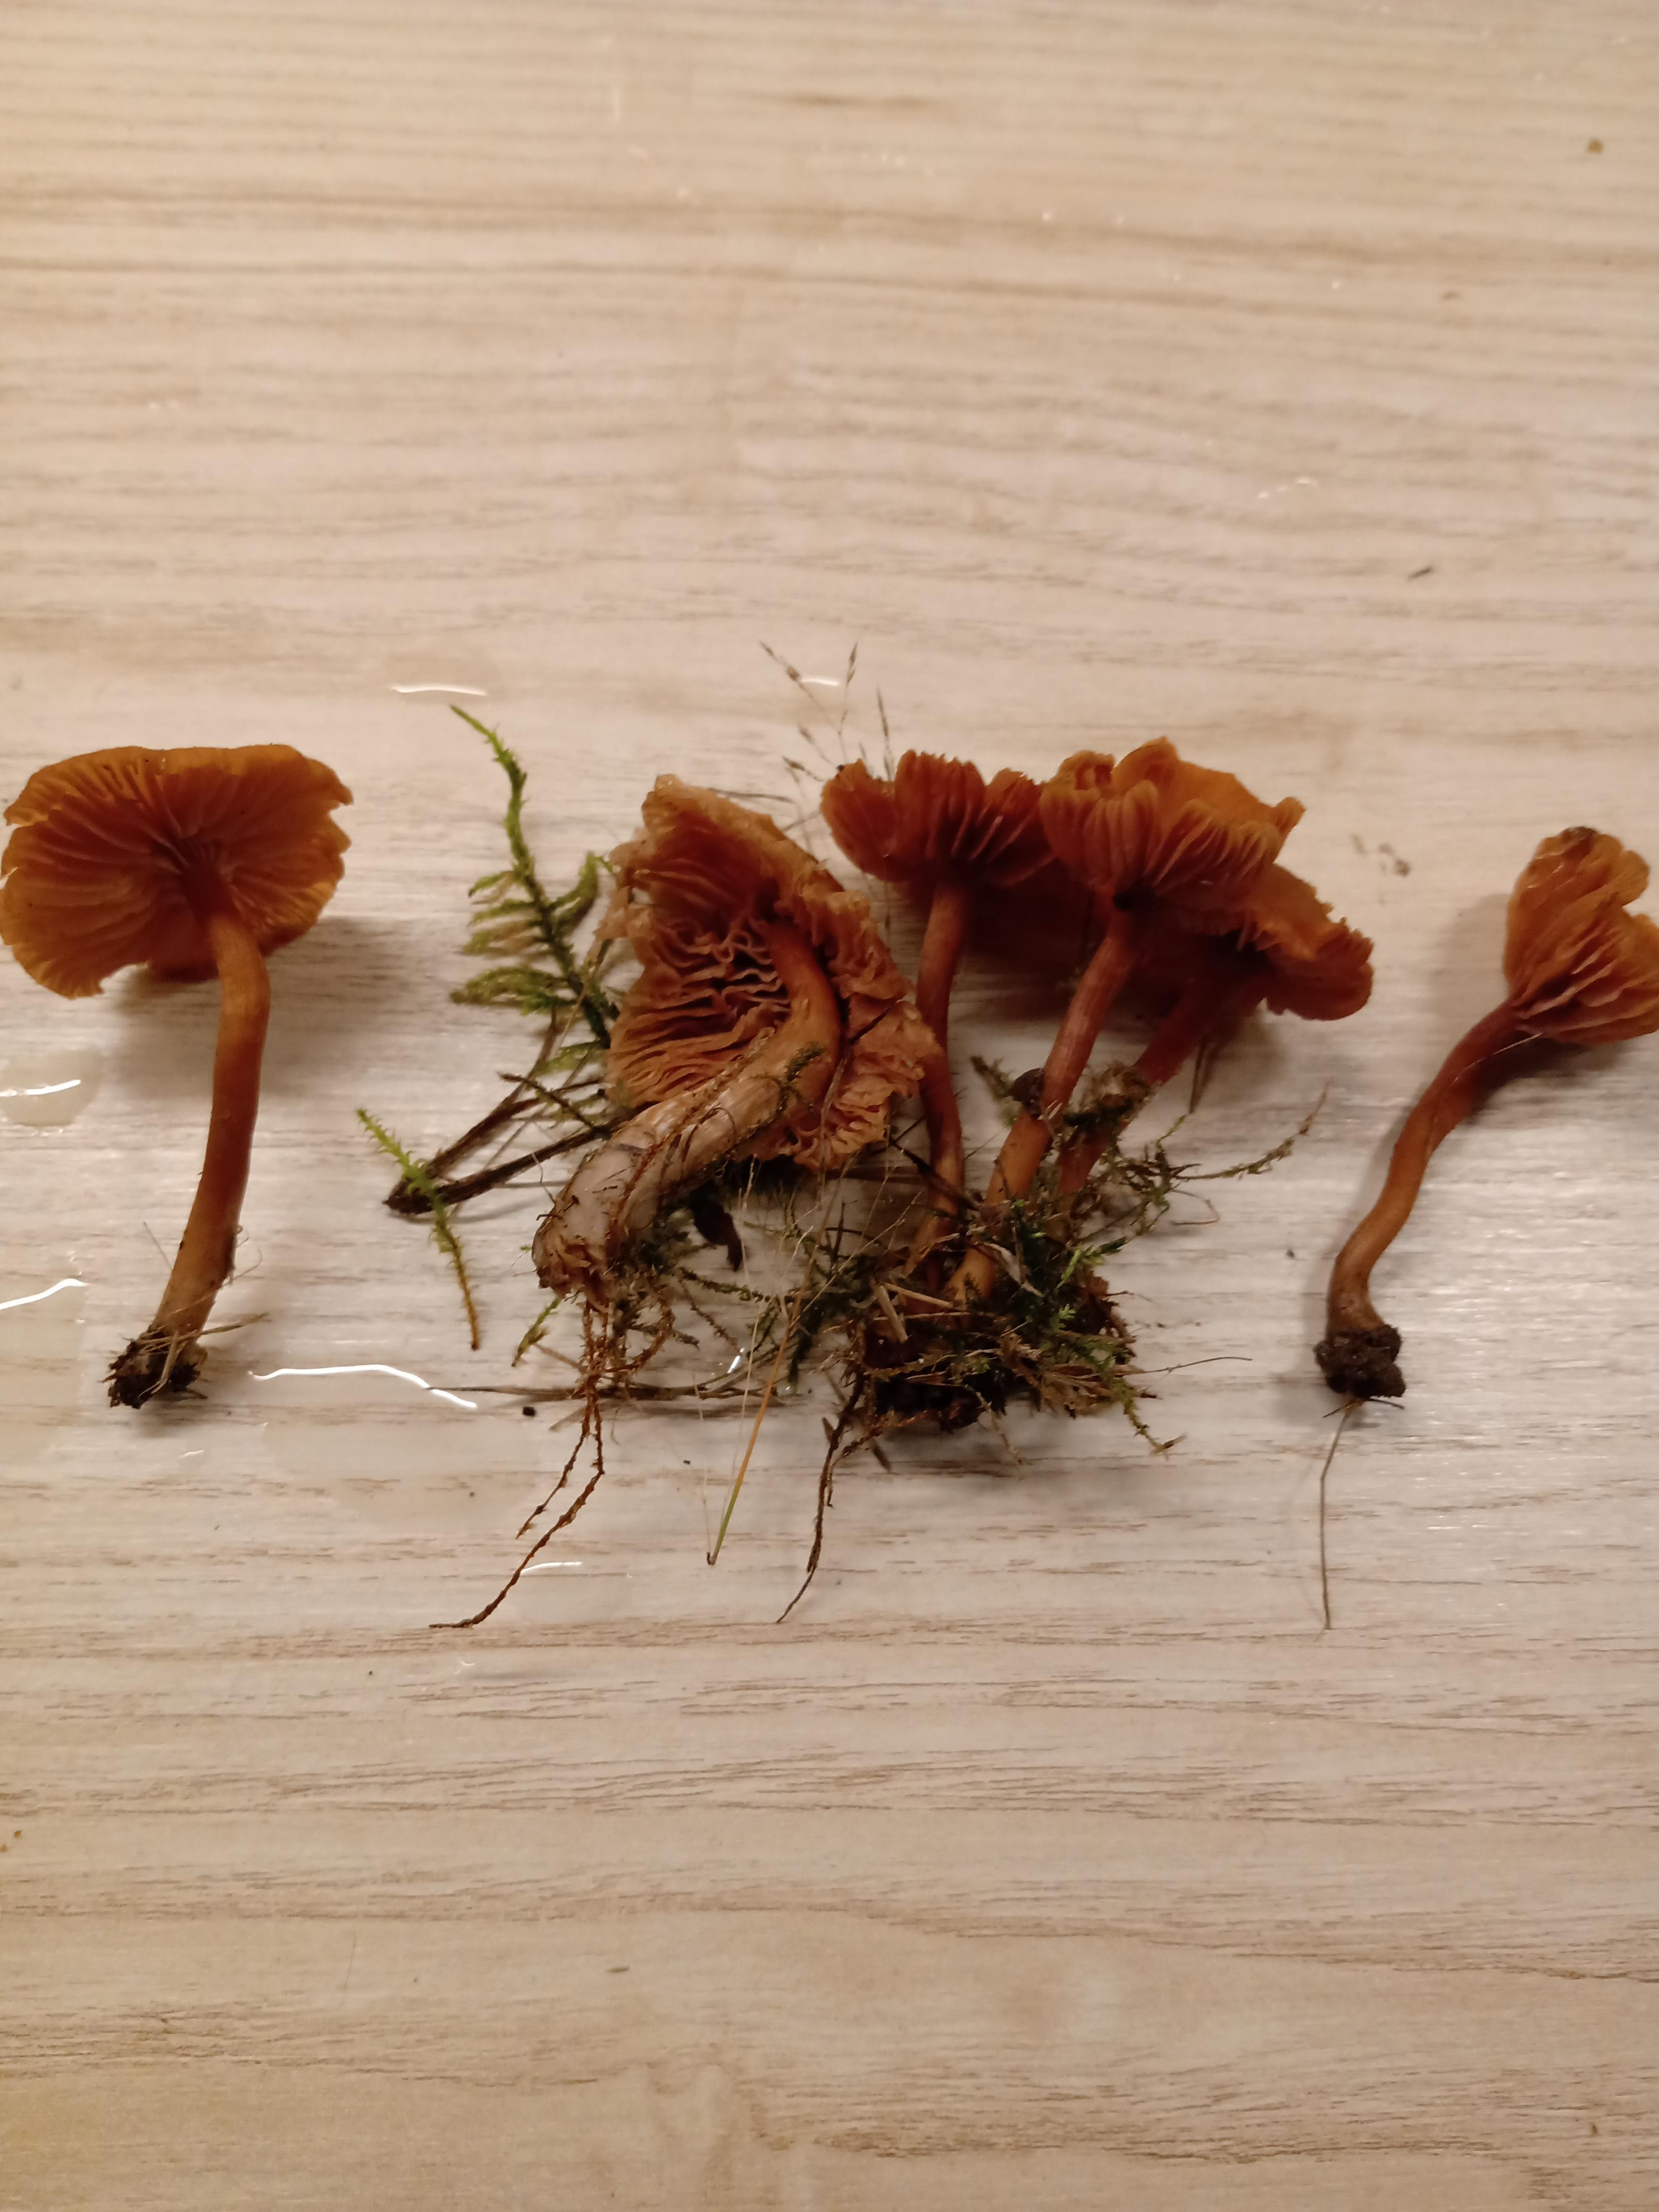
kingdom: Fungi
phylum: Basidiomycota
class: Agaricomycetes
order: Agaricales
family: Hydnangiaceae
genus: Laccaria
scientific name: Laccaria laccata
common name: rød ametysthat
